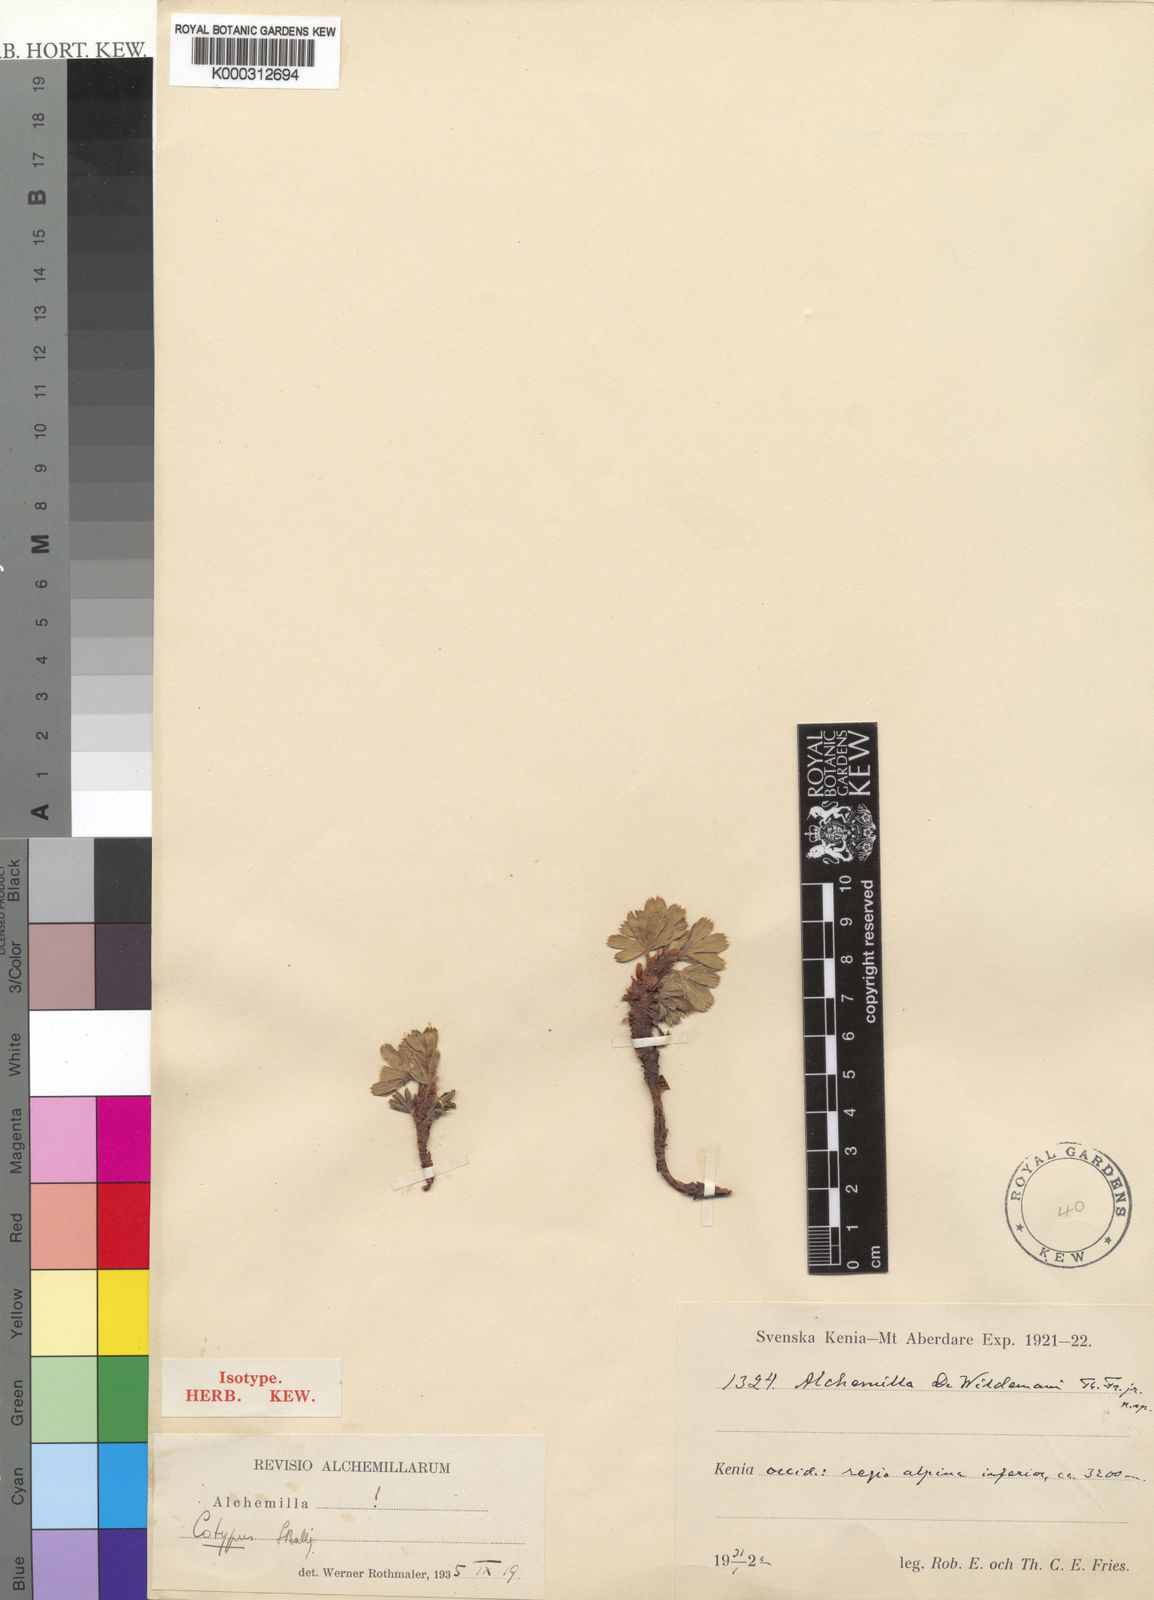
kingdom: Plantae
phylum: Tracheophyta
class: Magnoliopsida
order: Rosales
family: Rosaceae
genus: Alchemilla
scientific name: Alchemilla dewildemanii
